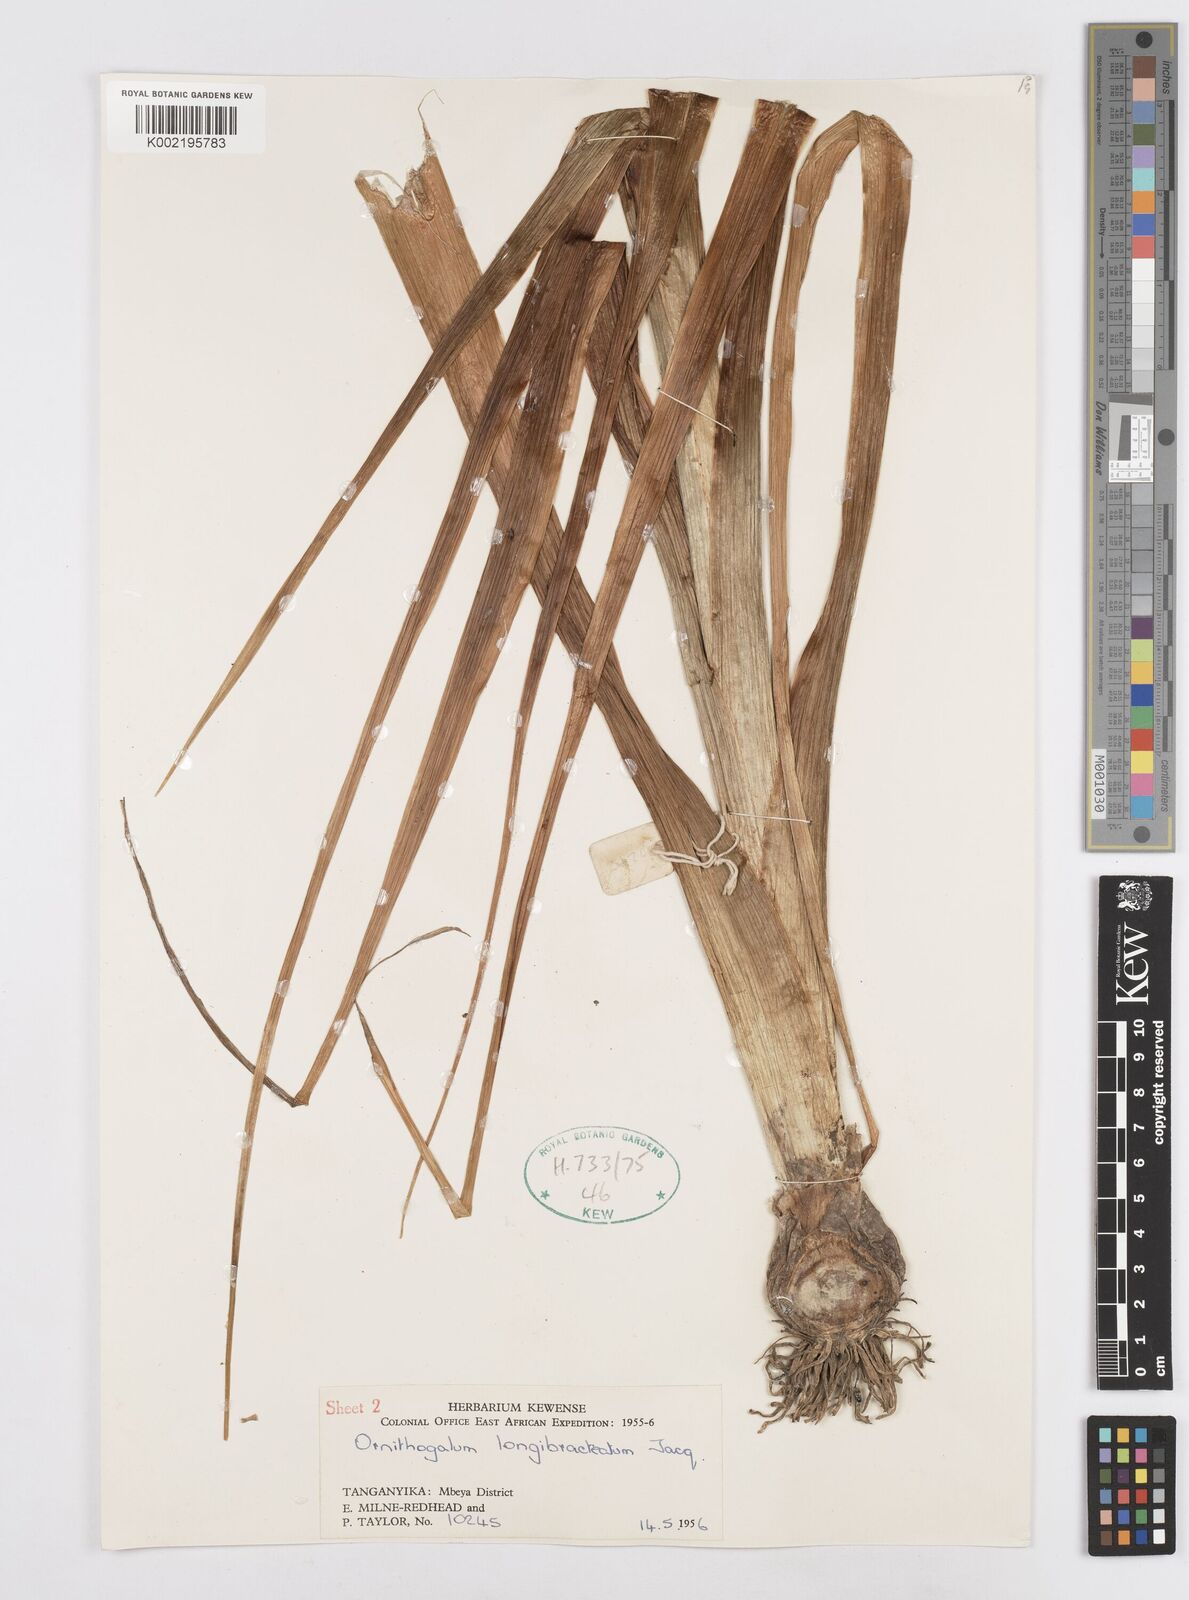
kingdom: Plantae
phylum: Tracheophyta
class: Liliopsida
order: Asparagales
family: Asparagaceae
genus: Ornithogalum
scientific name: Ornithogalum
